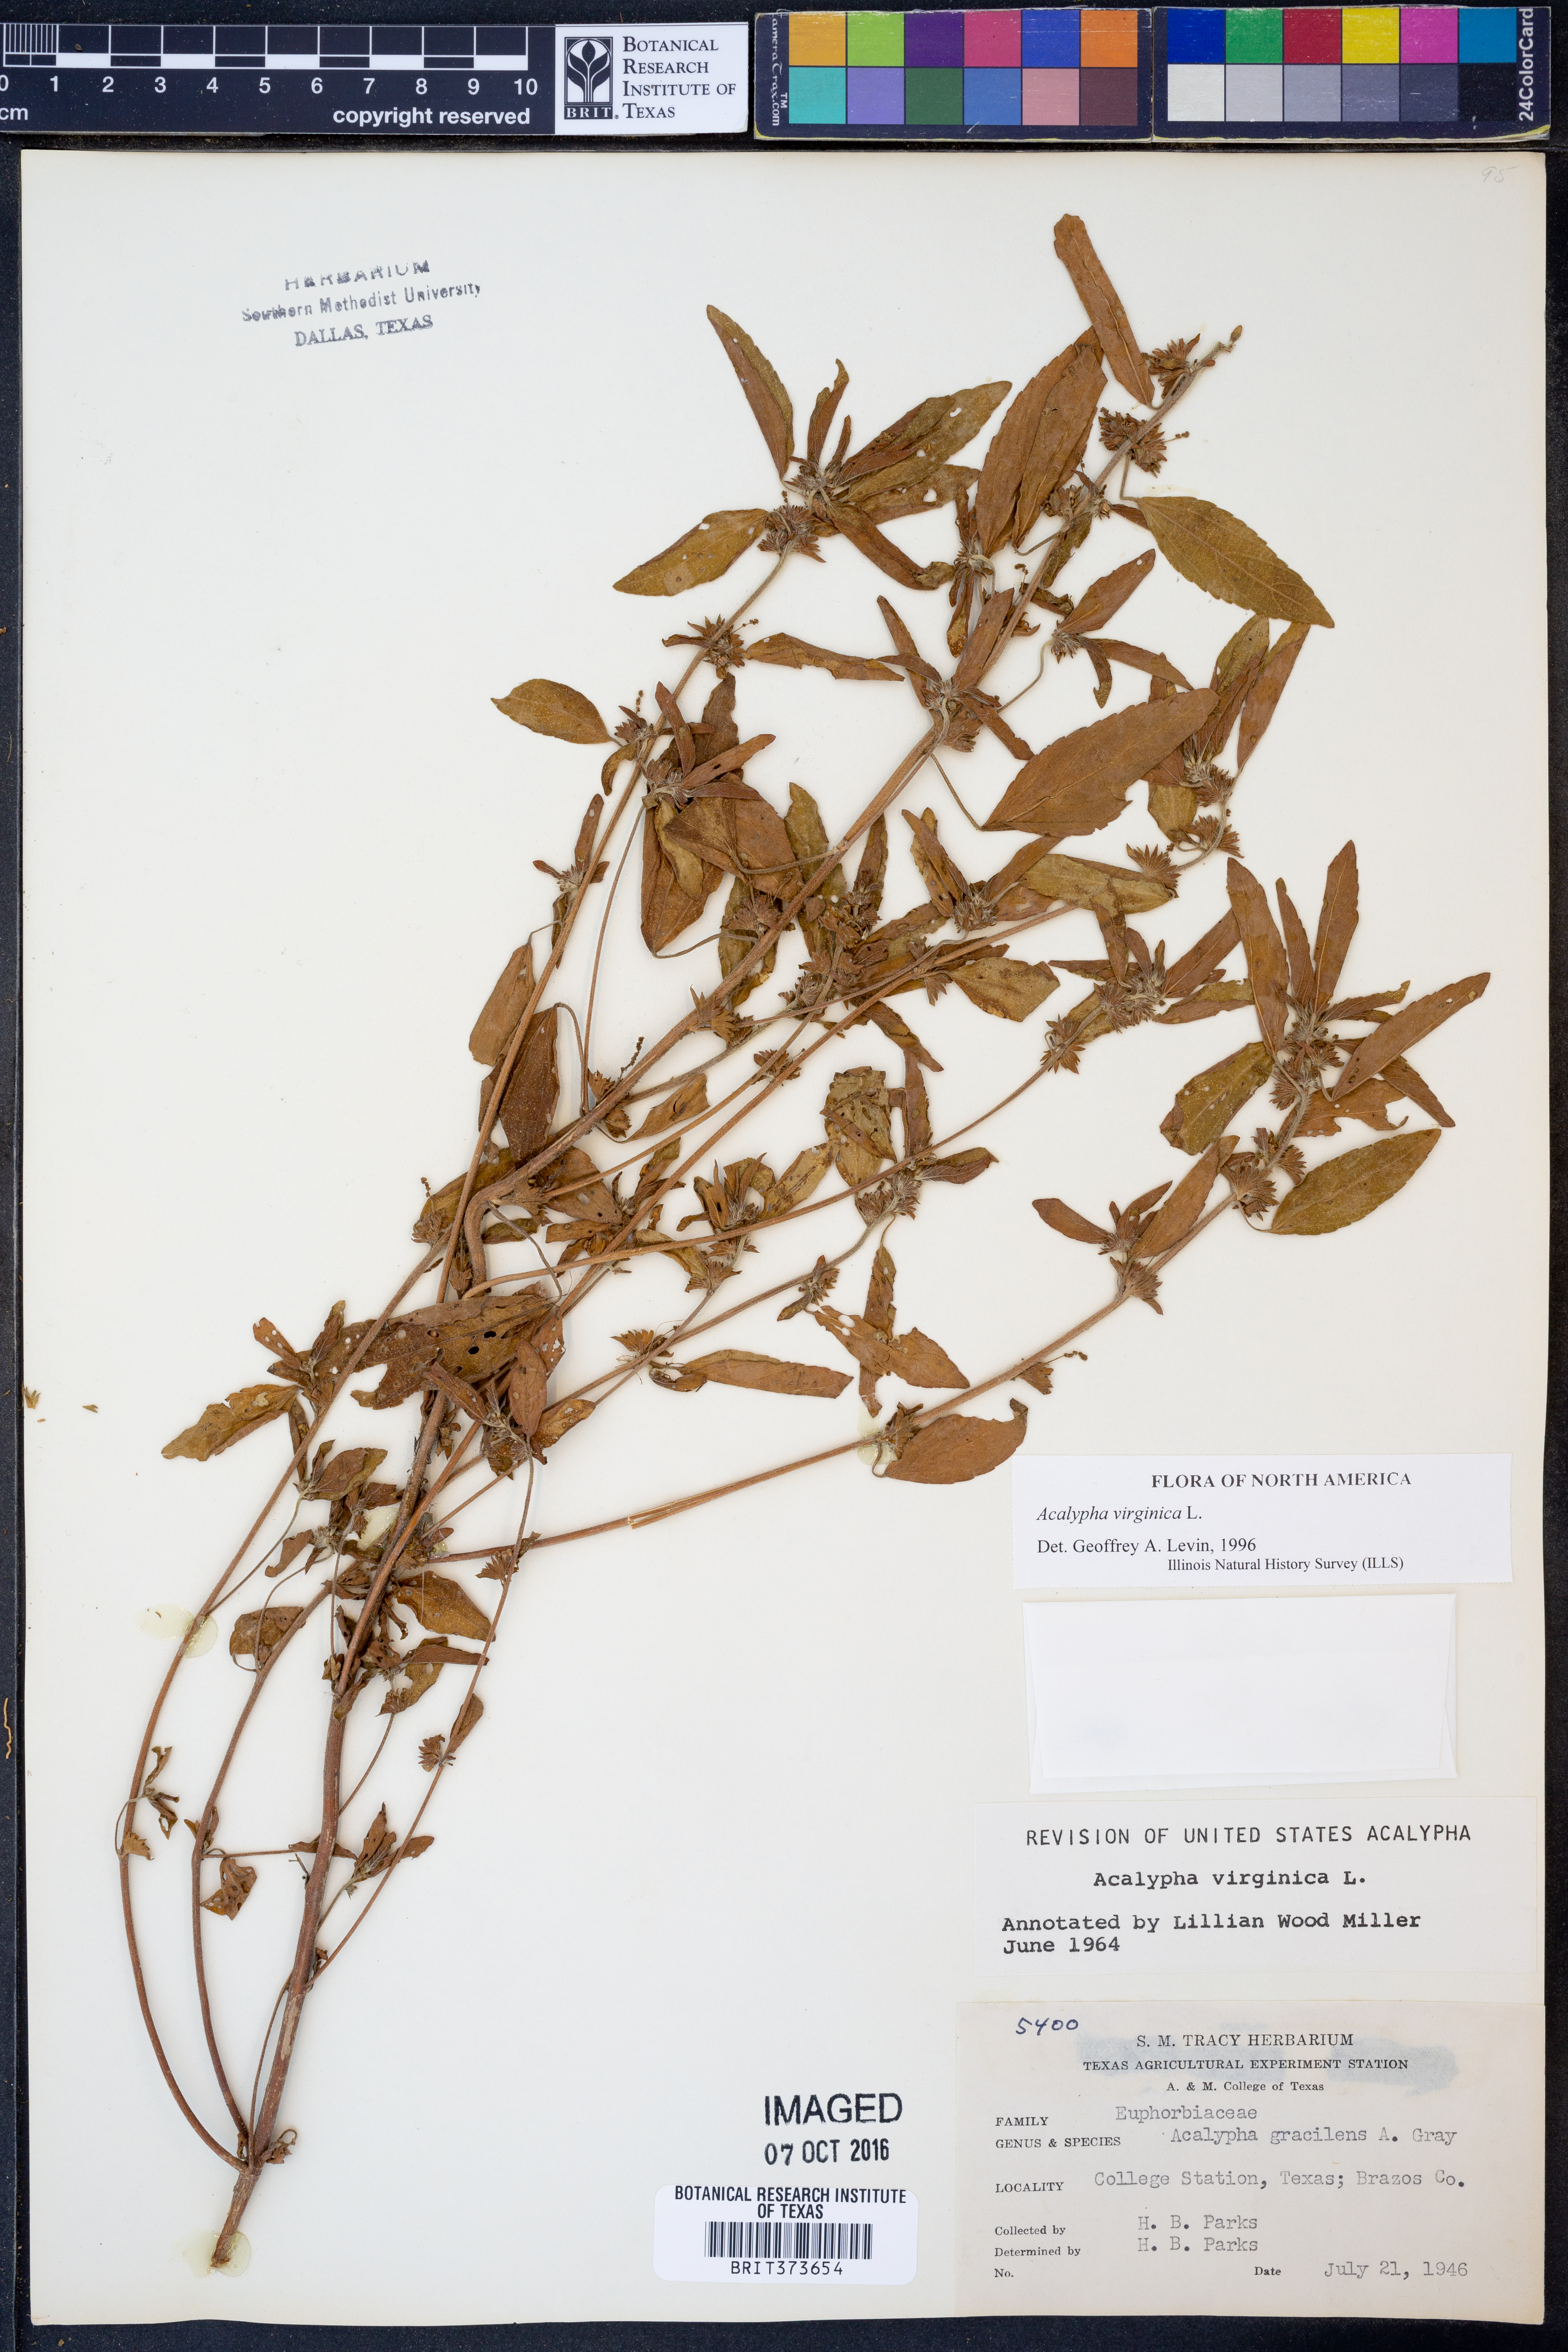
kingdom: Plantae
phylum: Tracheophyta
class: Magnoliopsida
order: Malpighiales
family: Euphorbiaceae
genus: Acalypha
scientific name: Acalypha virginica
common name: Virginia copperleaf
